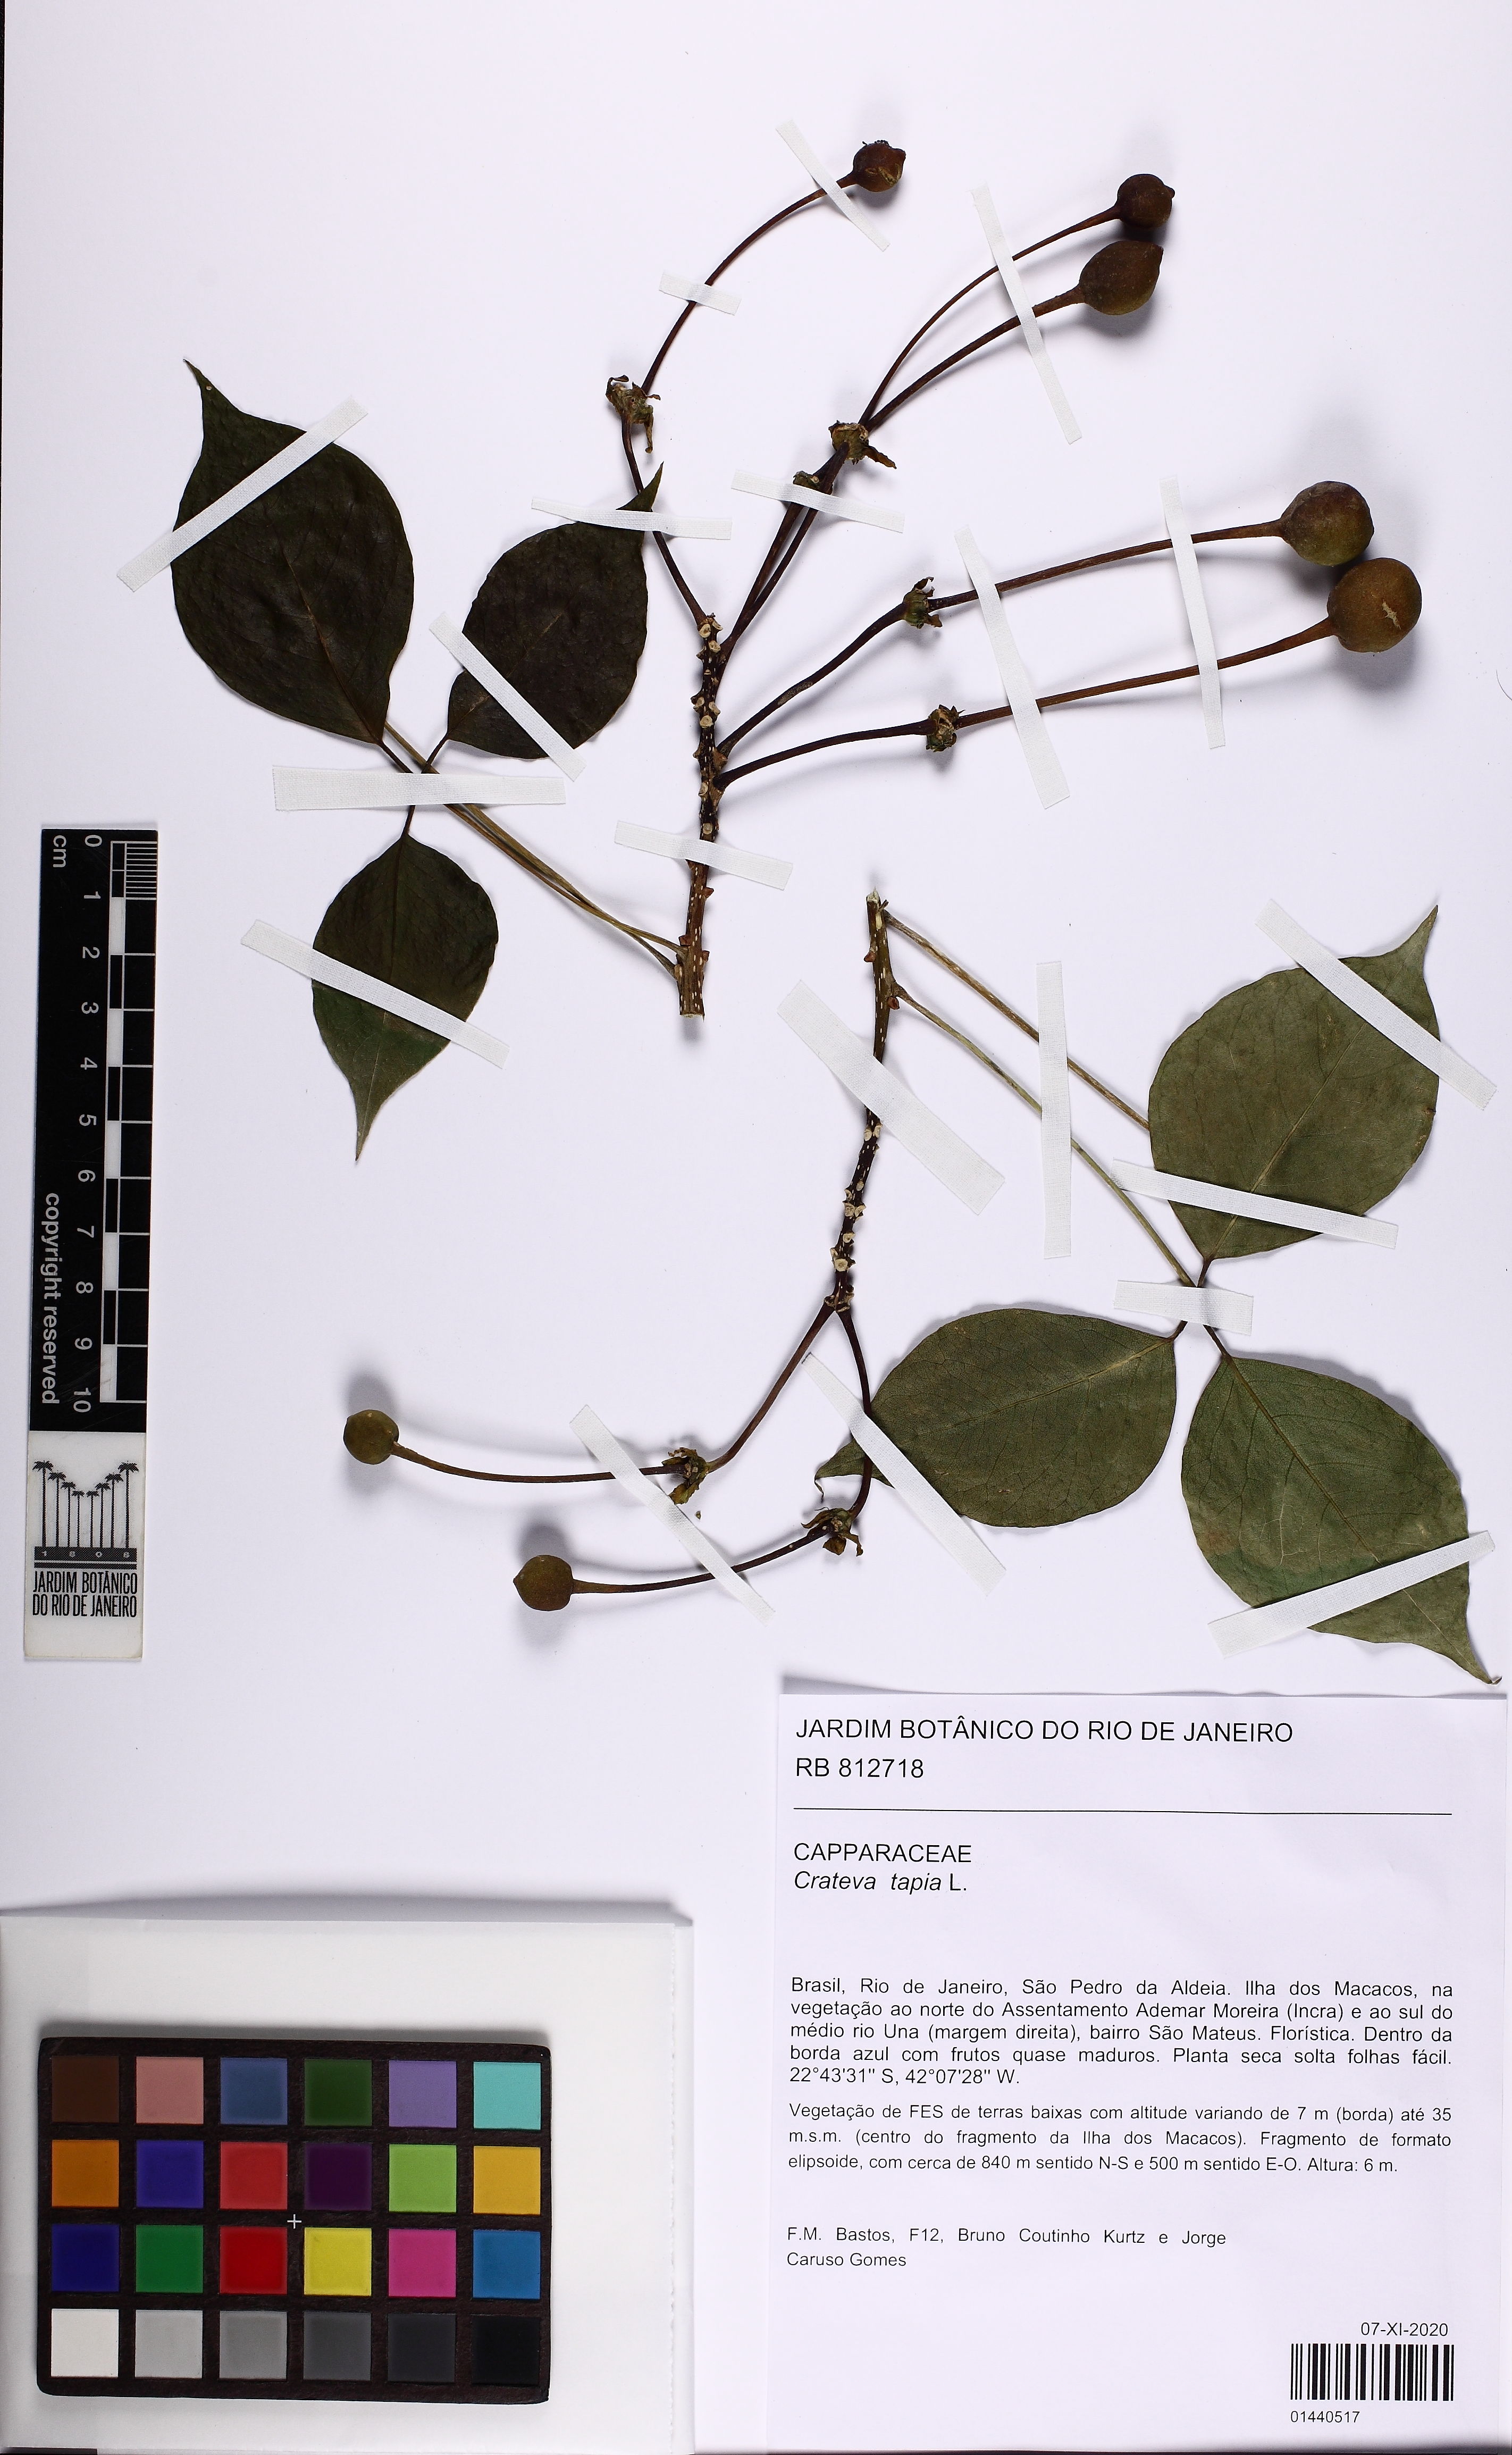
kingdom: Plantae
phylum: Tracheophyta
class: Magnoliopsida
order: Brassicales
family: Capparaceae
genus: Crateva
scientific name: Crateva tapia
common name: Garlic-pear
